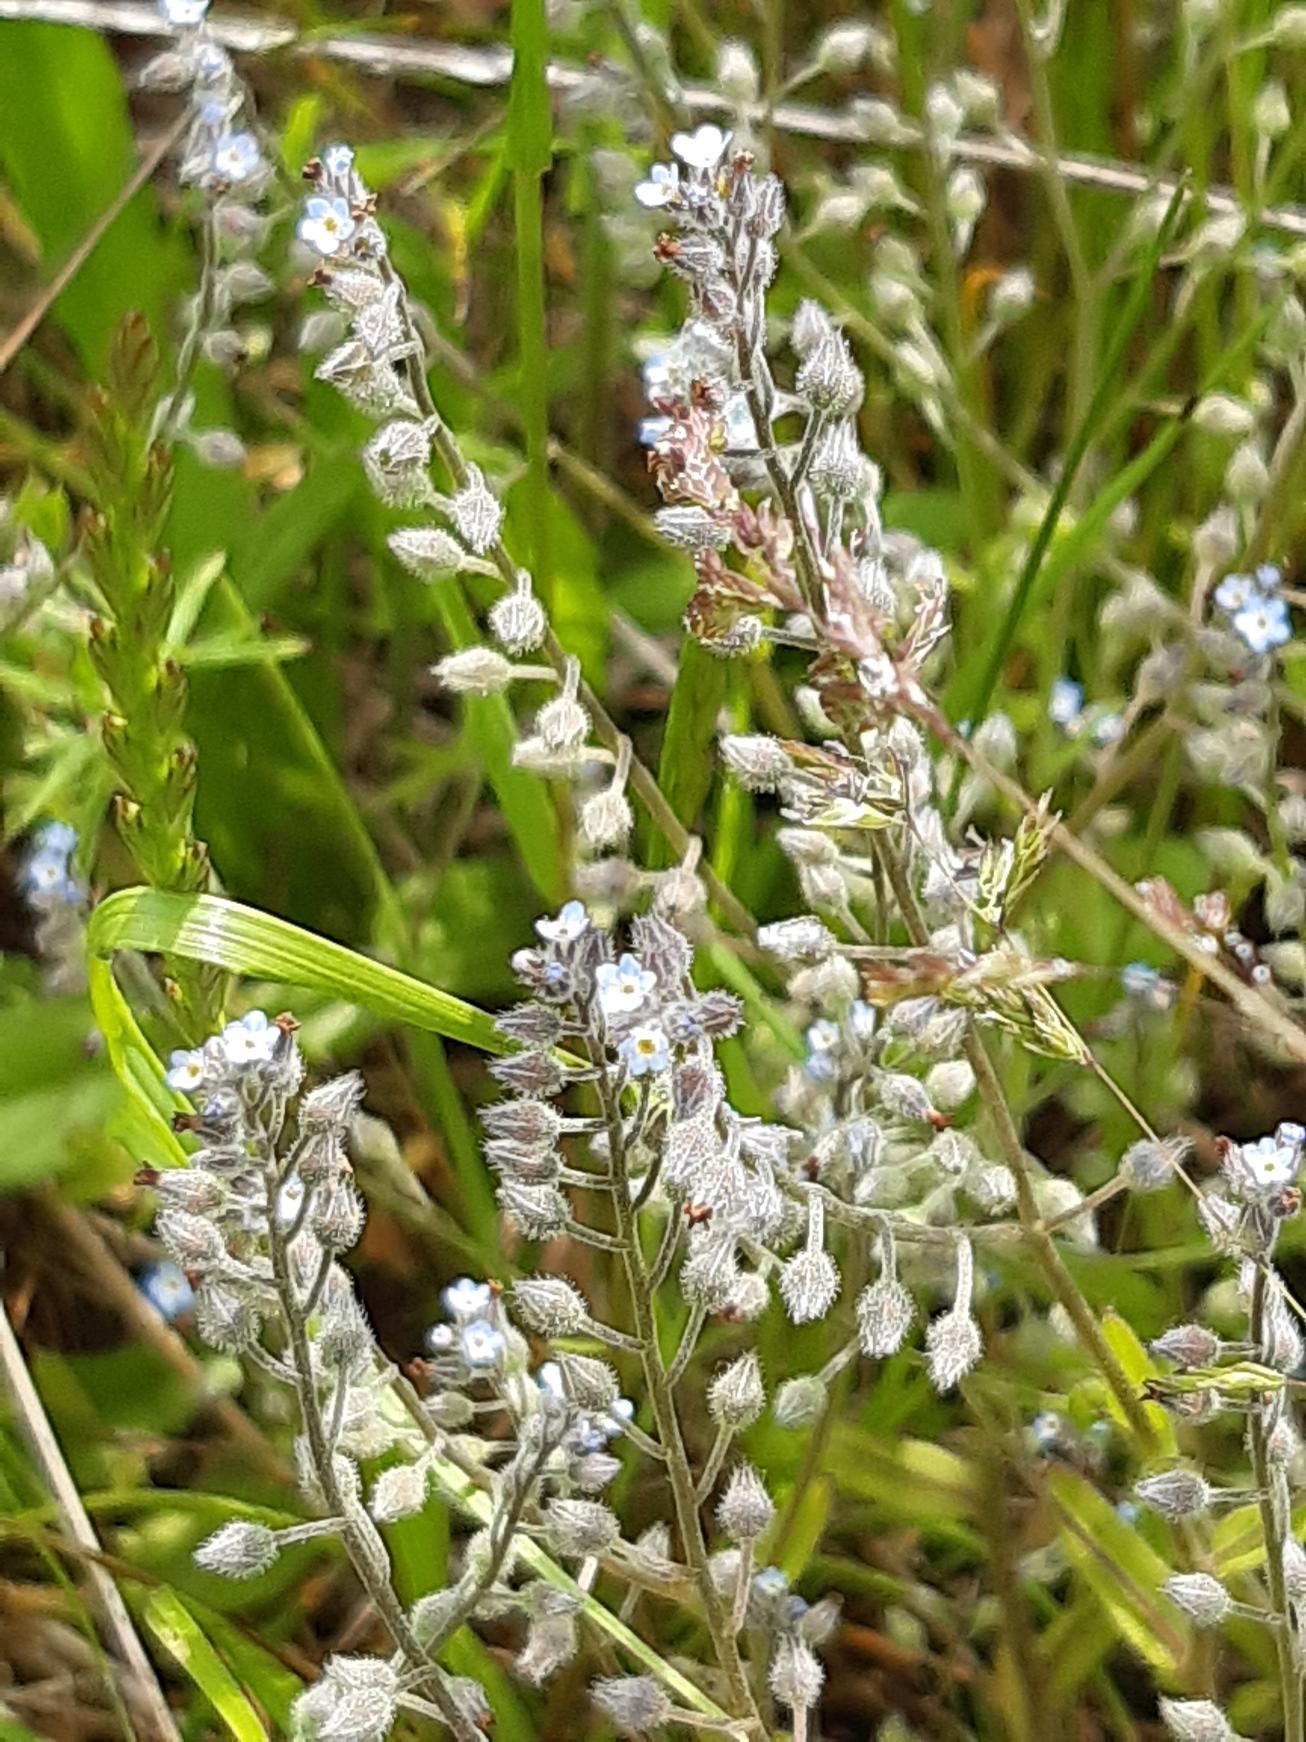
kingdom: Plantae
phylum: Tracheophyta
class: Magnoliopsida
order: Boraginales
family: Boraginaceae
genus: Myosotis
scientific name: Myosotis arvensis
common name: Mark-forglemmigej
